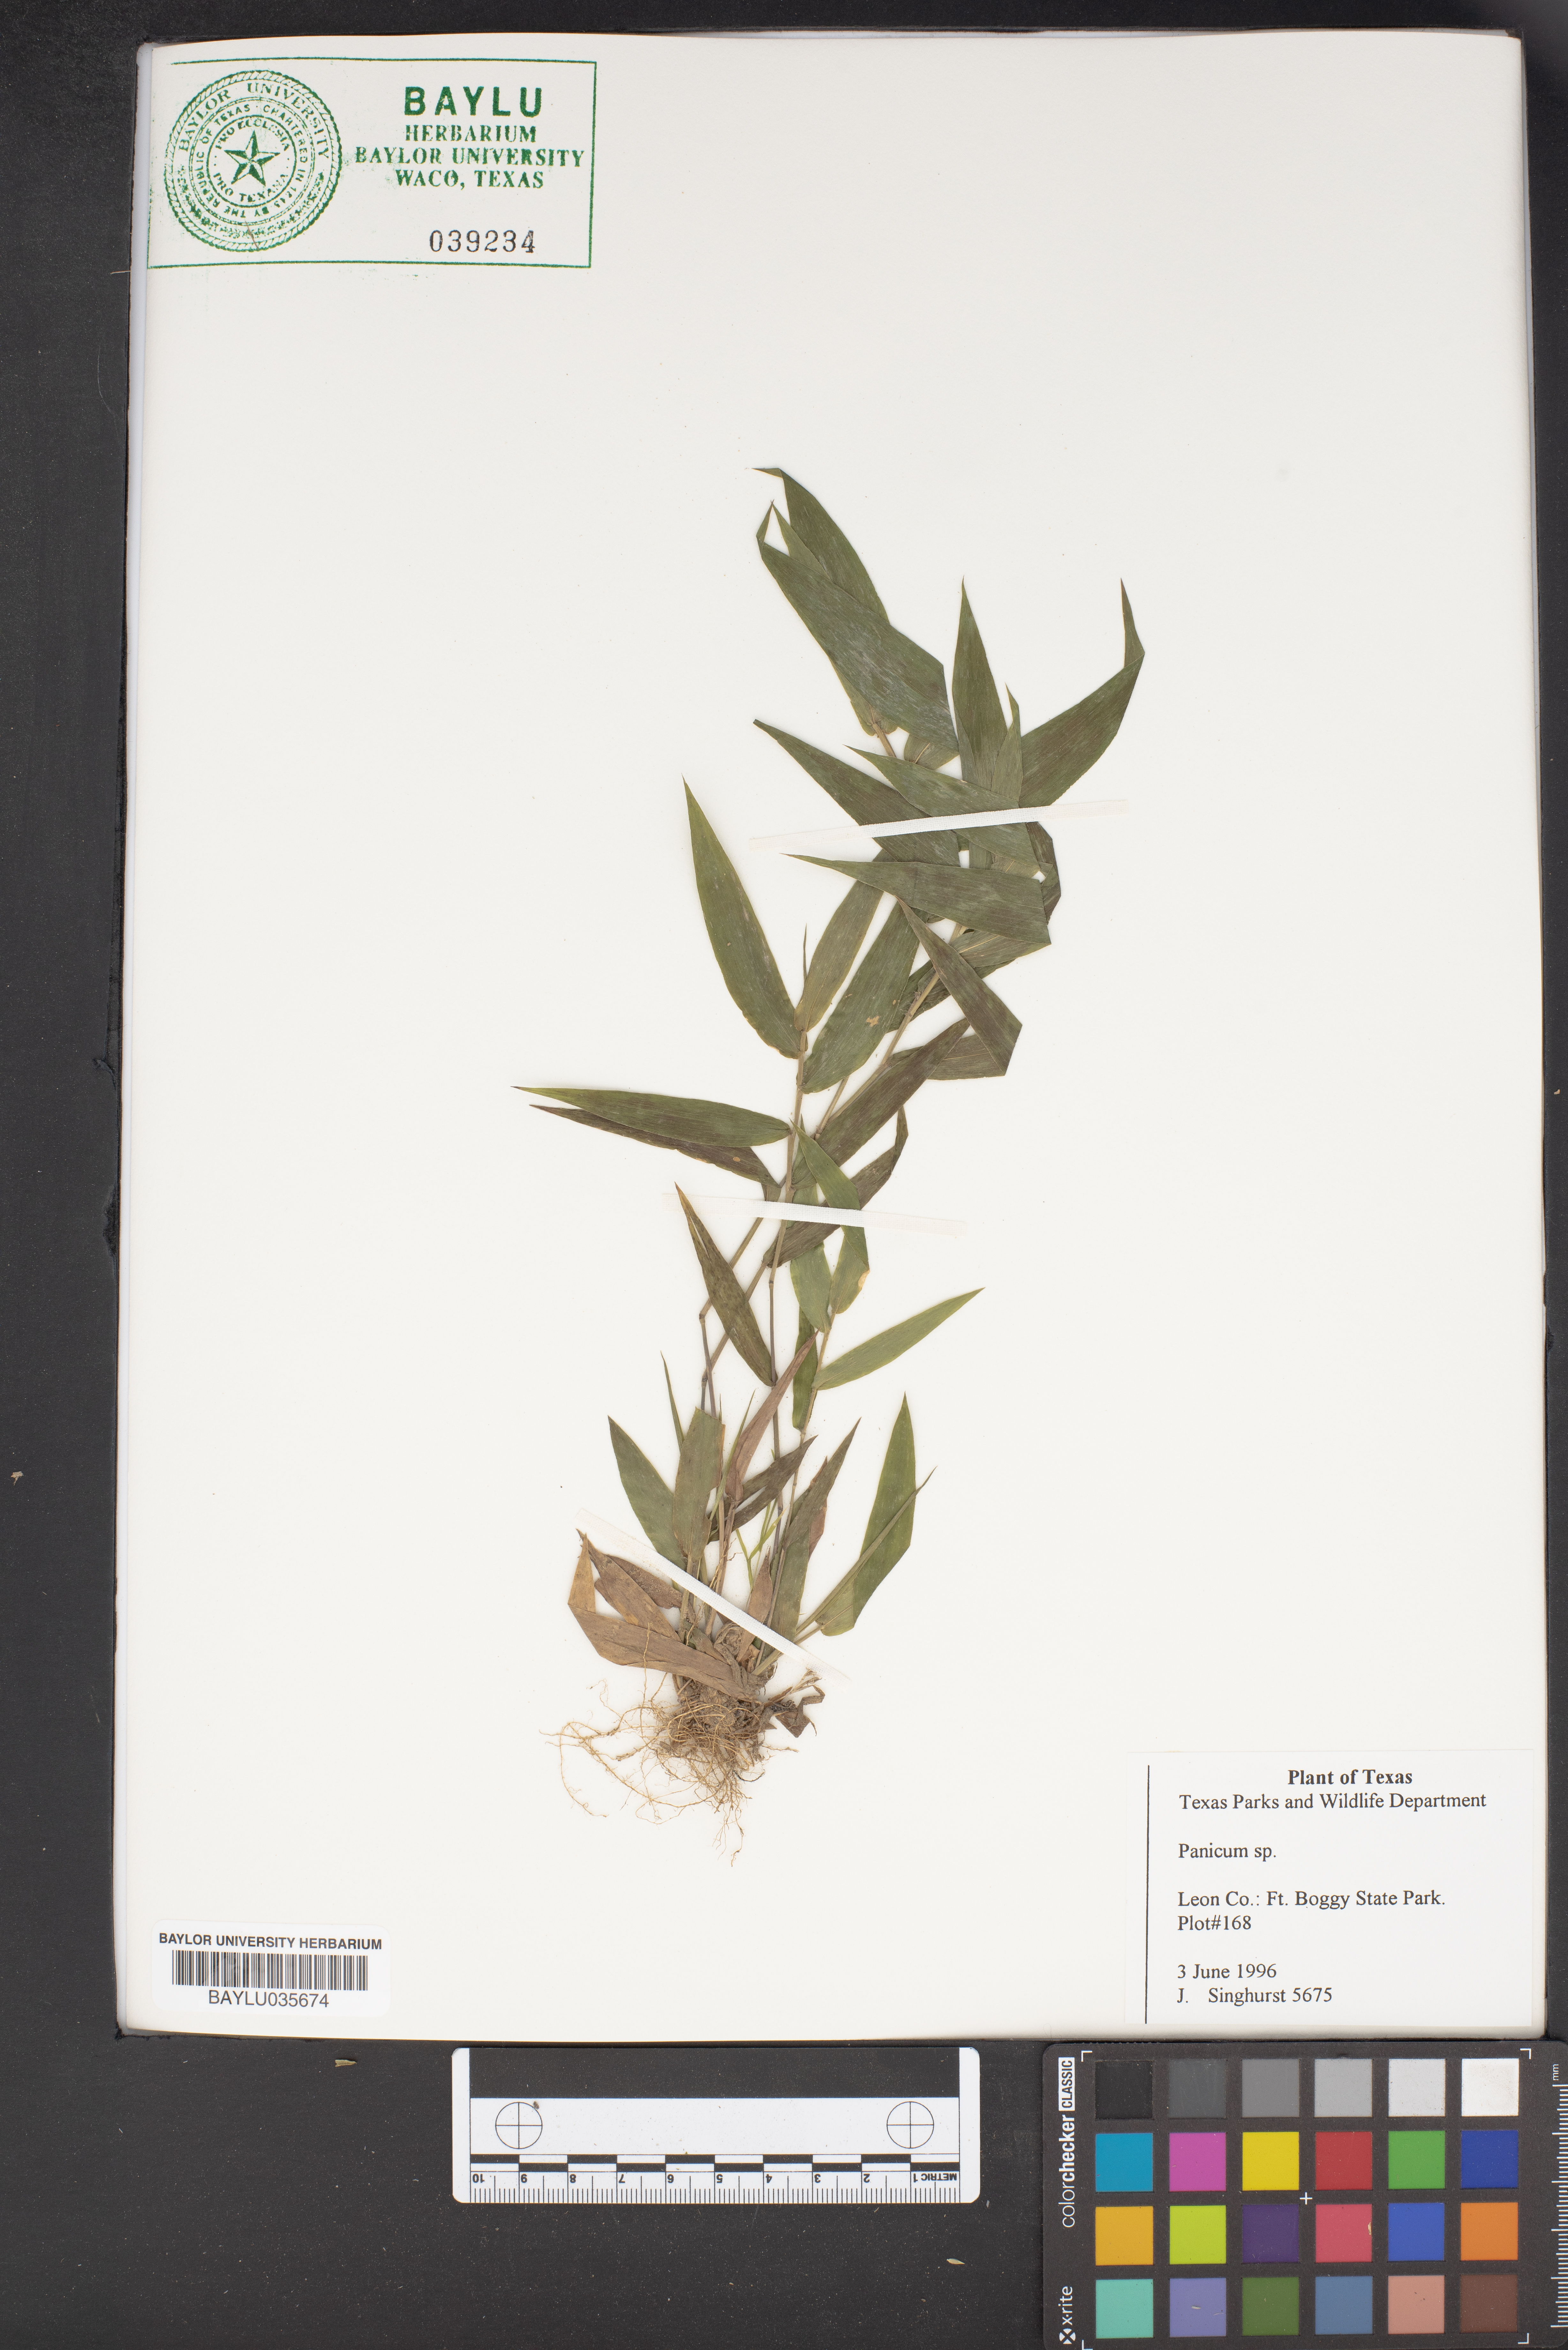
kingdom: Plantae
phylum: Tracheophyta
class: Liliopsida
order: Poales
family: Poaceae
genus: Panicum
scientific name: Panicum
